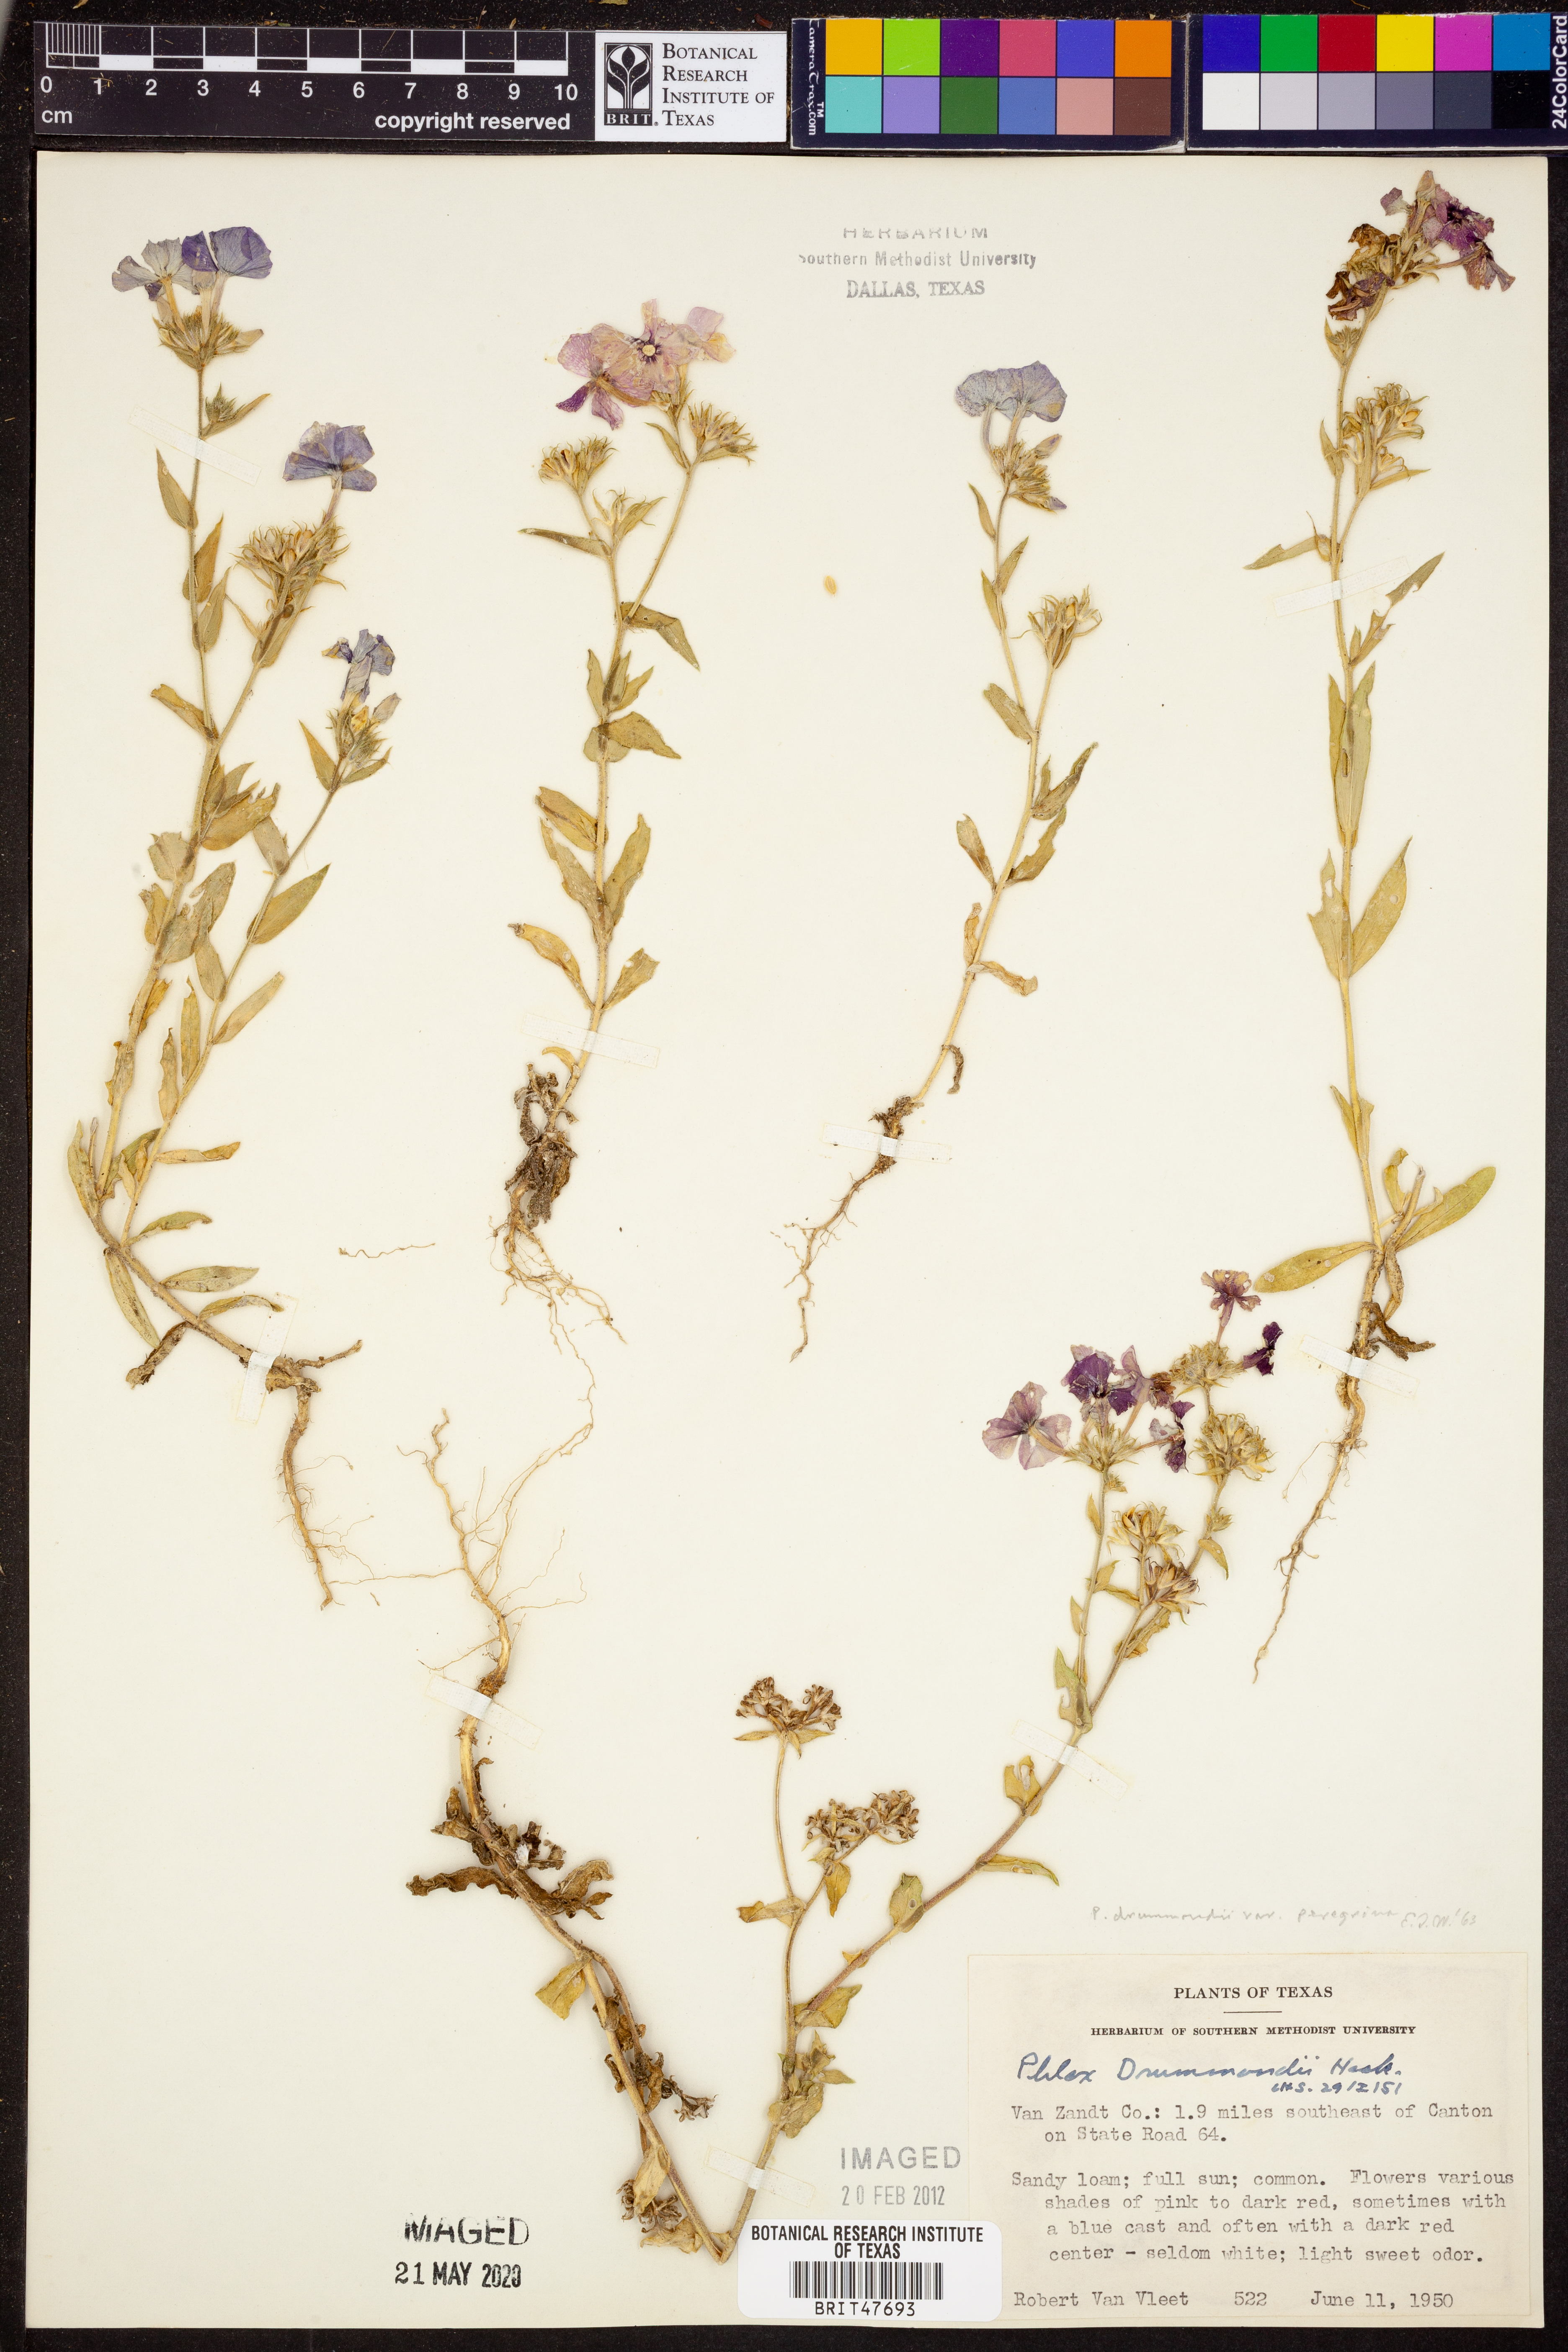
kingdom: Plantae
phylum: Tracheophyta
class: Magnoliopsida
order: Ericales
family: Polemoniaceae
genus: Phlox
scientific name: Phlox drummondii
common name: Drummond's phlox
